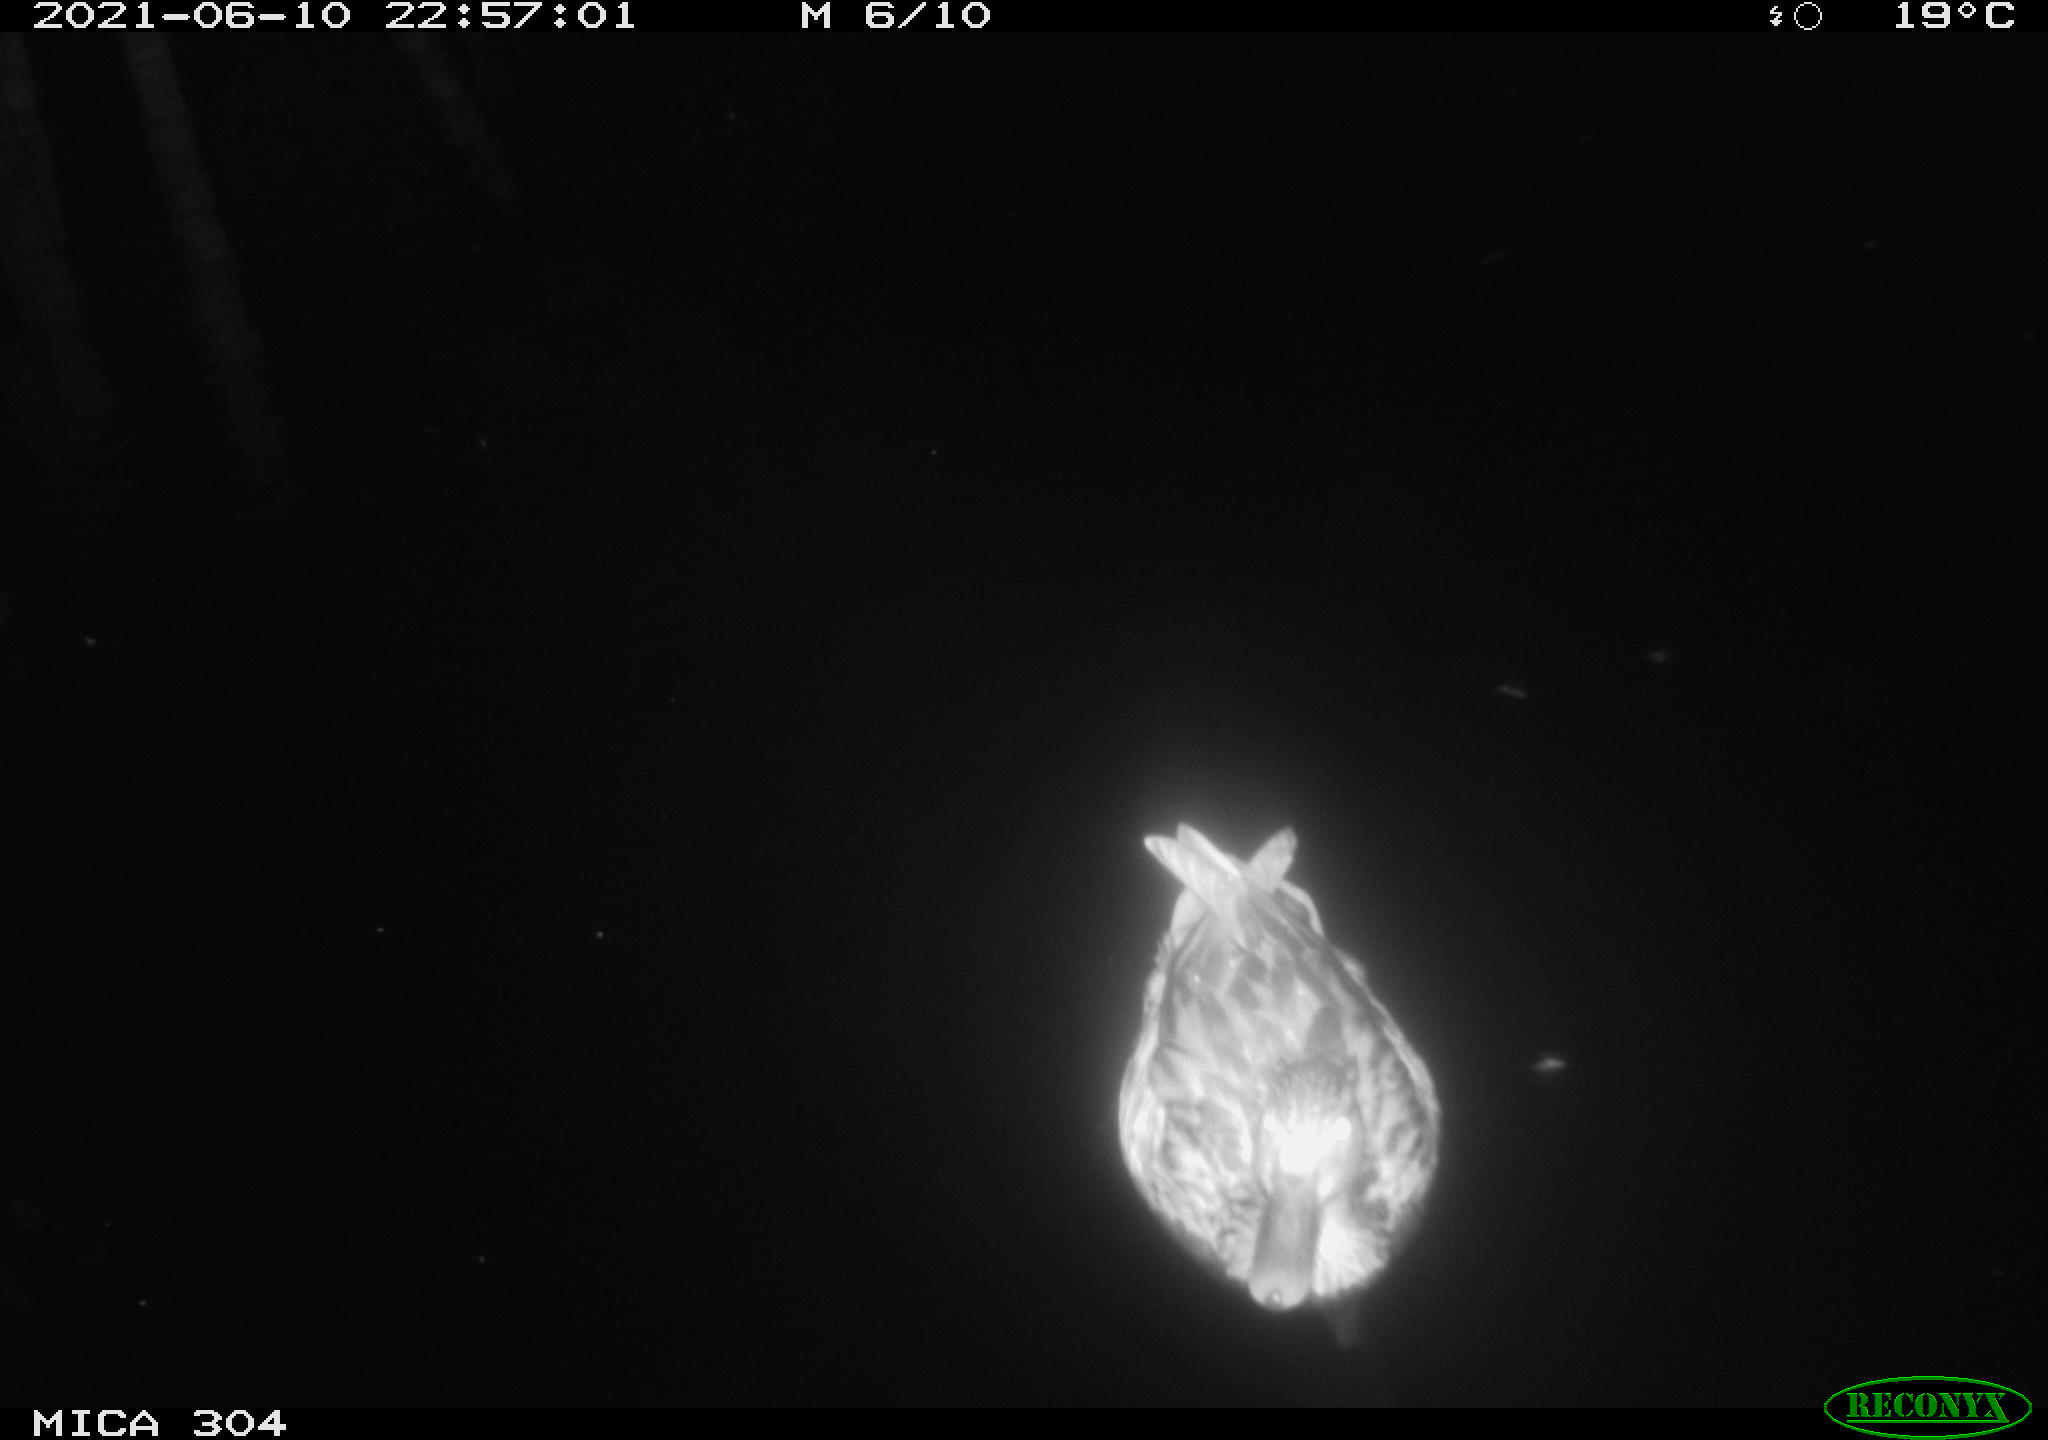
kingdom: Animalia
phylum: Chordata
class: Aves
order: Anseriformes
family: Anatidae
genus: Anas
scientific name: Anas platyrhynchos
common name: Mallard
